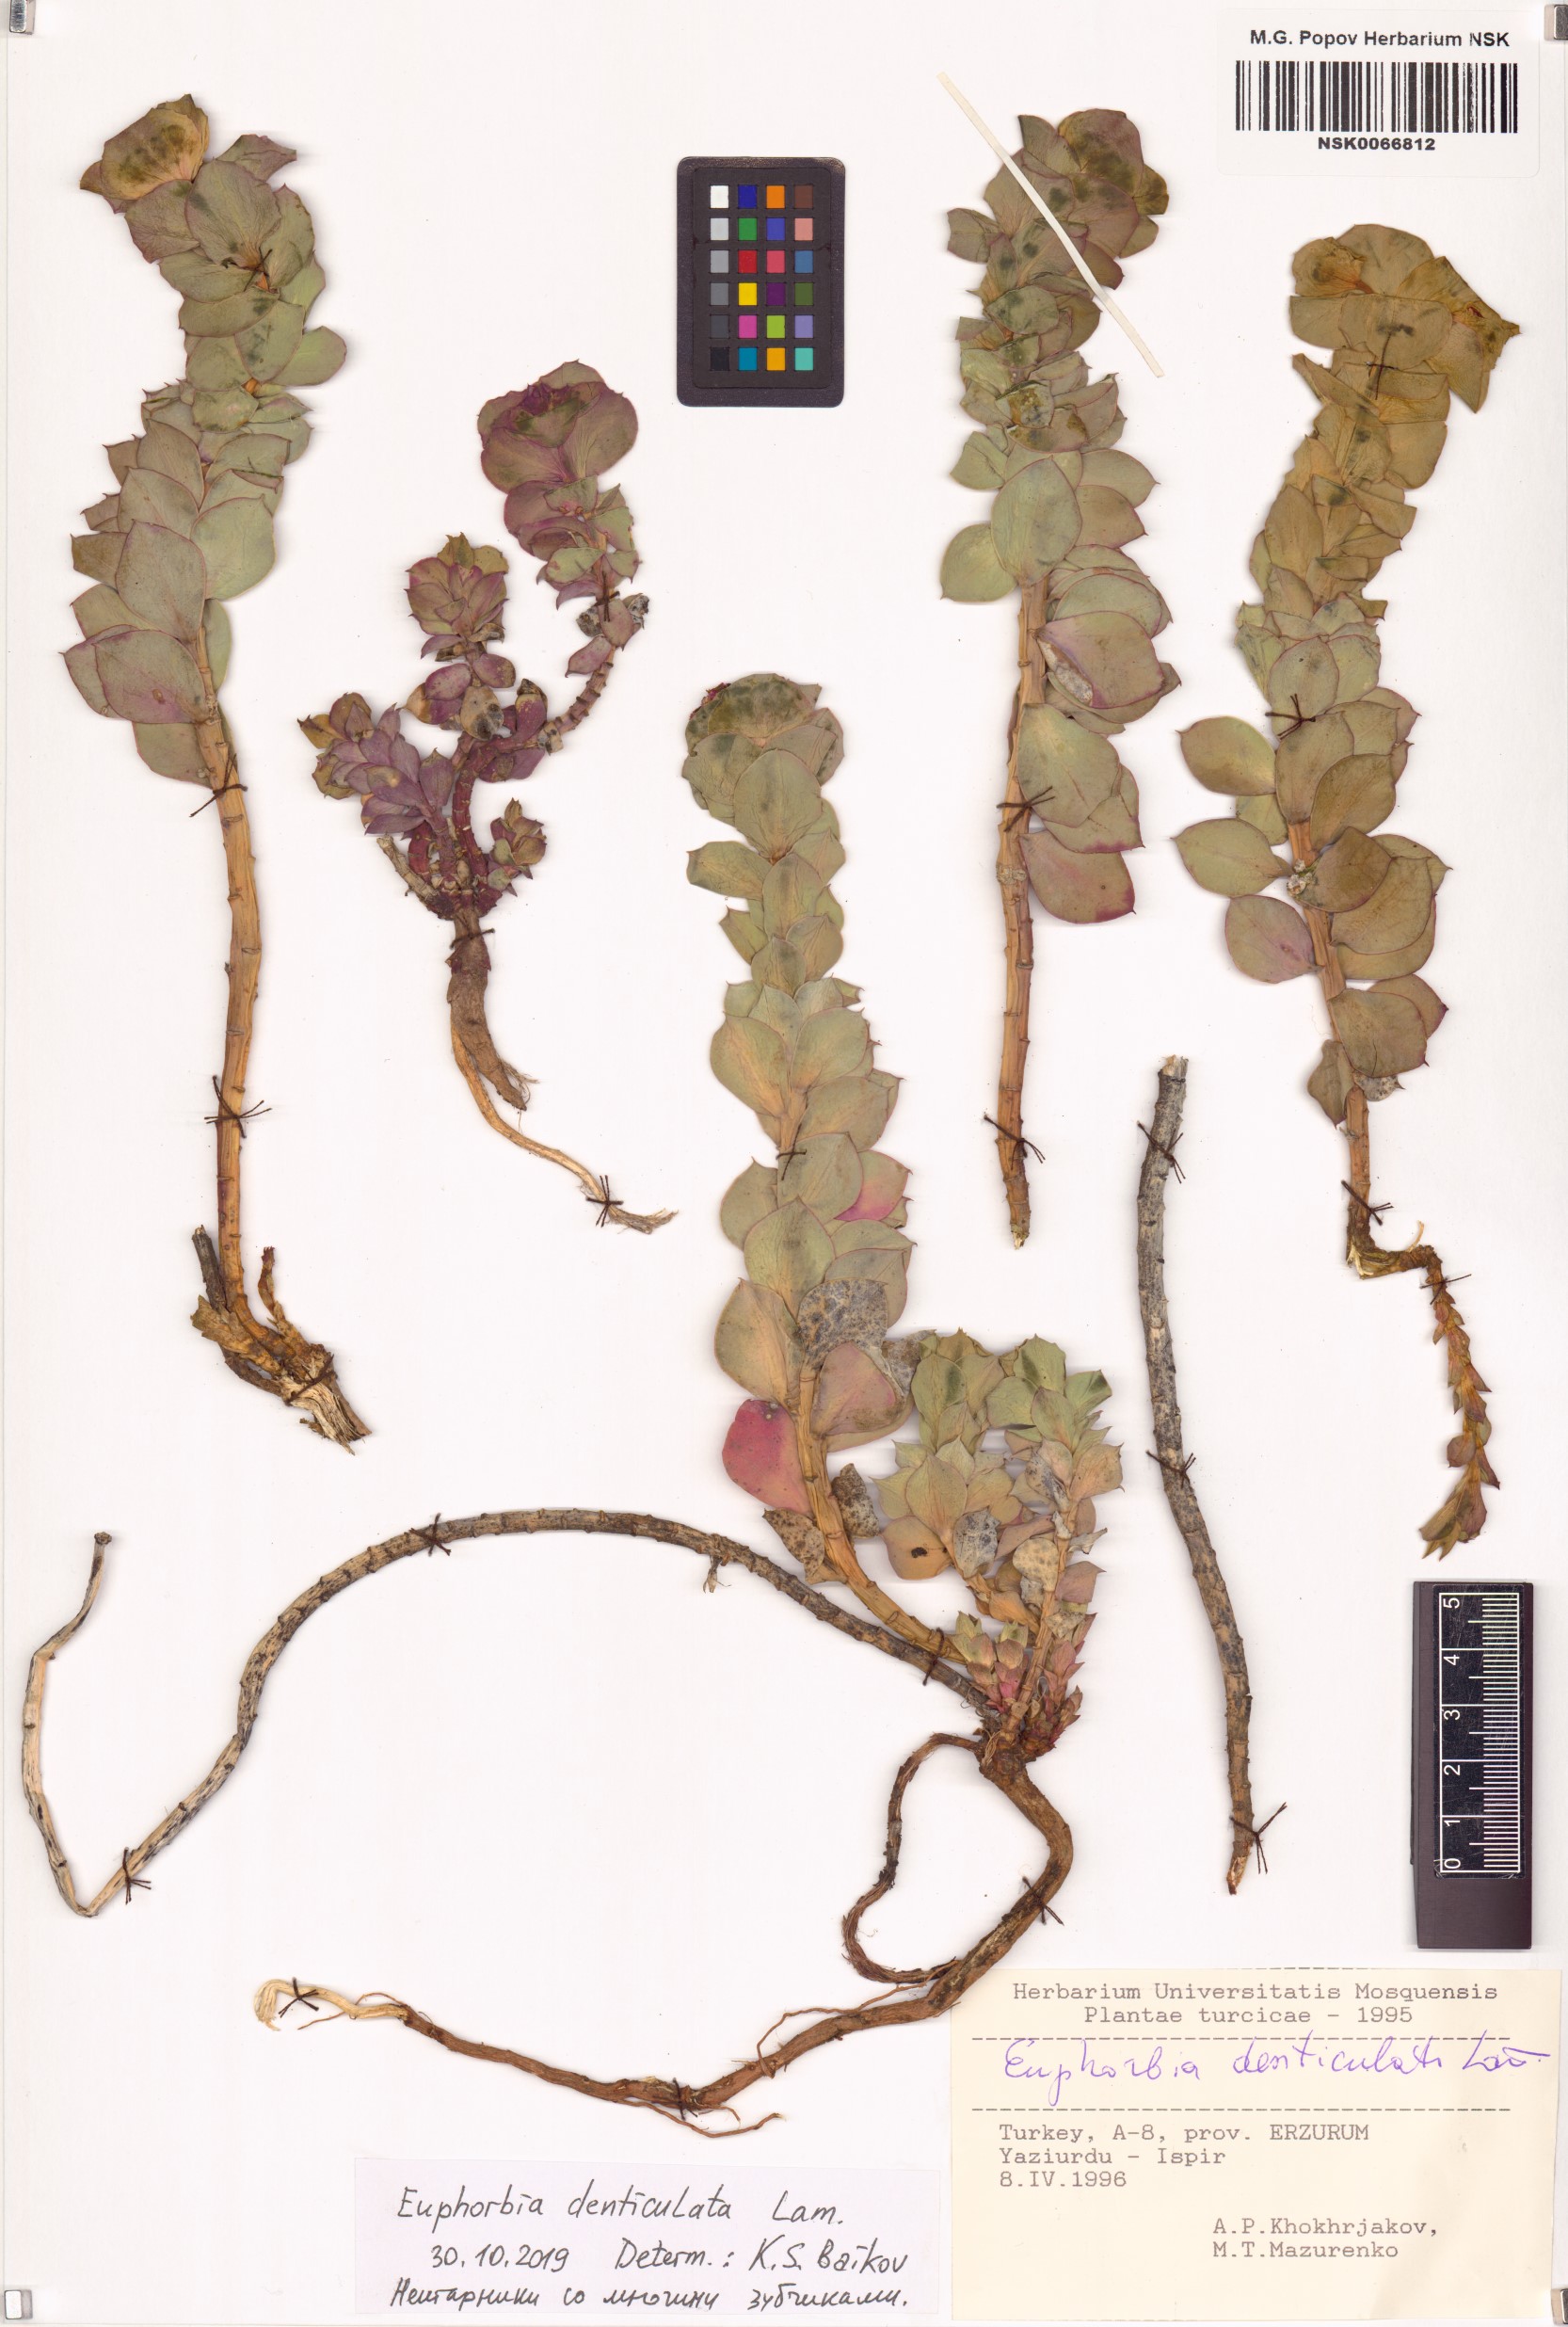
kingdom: Plantae
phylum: Tracheophyta
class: Magnoliopsida
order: Malpighiales
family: Euphorbiaceae
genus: Euphorbia
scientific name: Euphorbia denticulata
